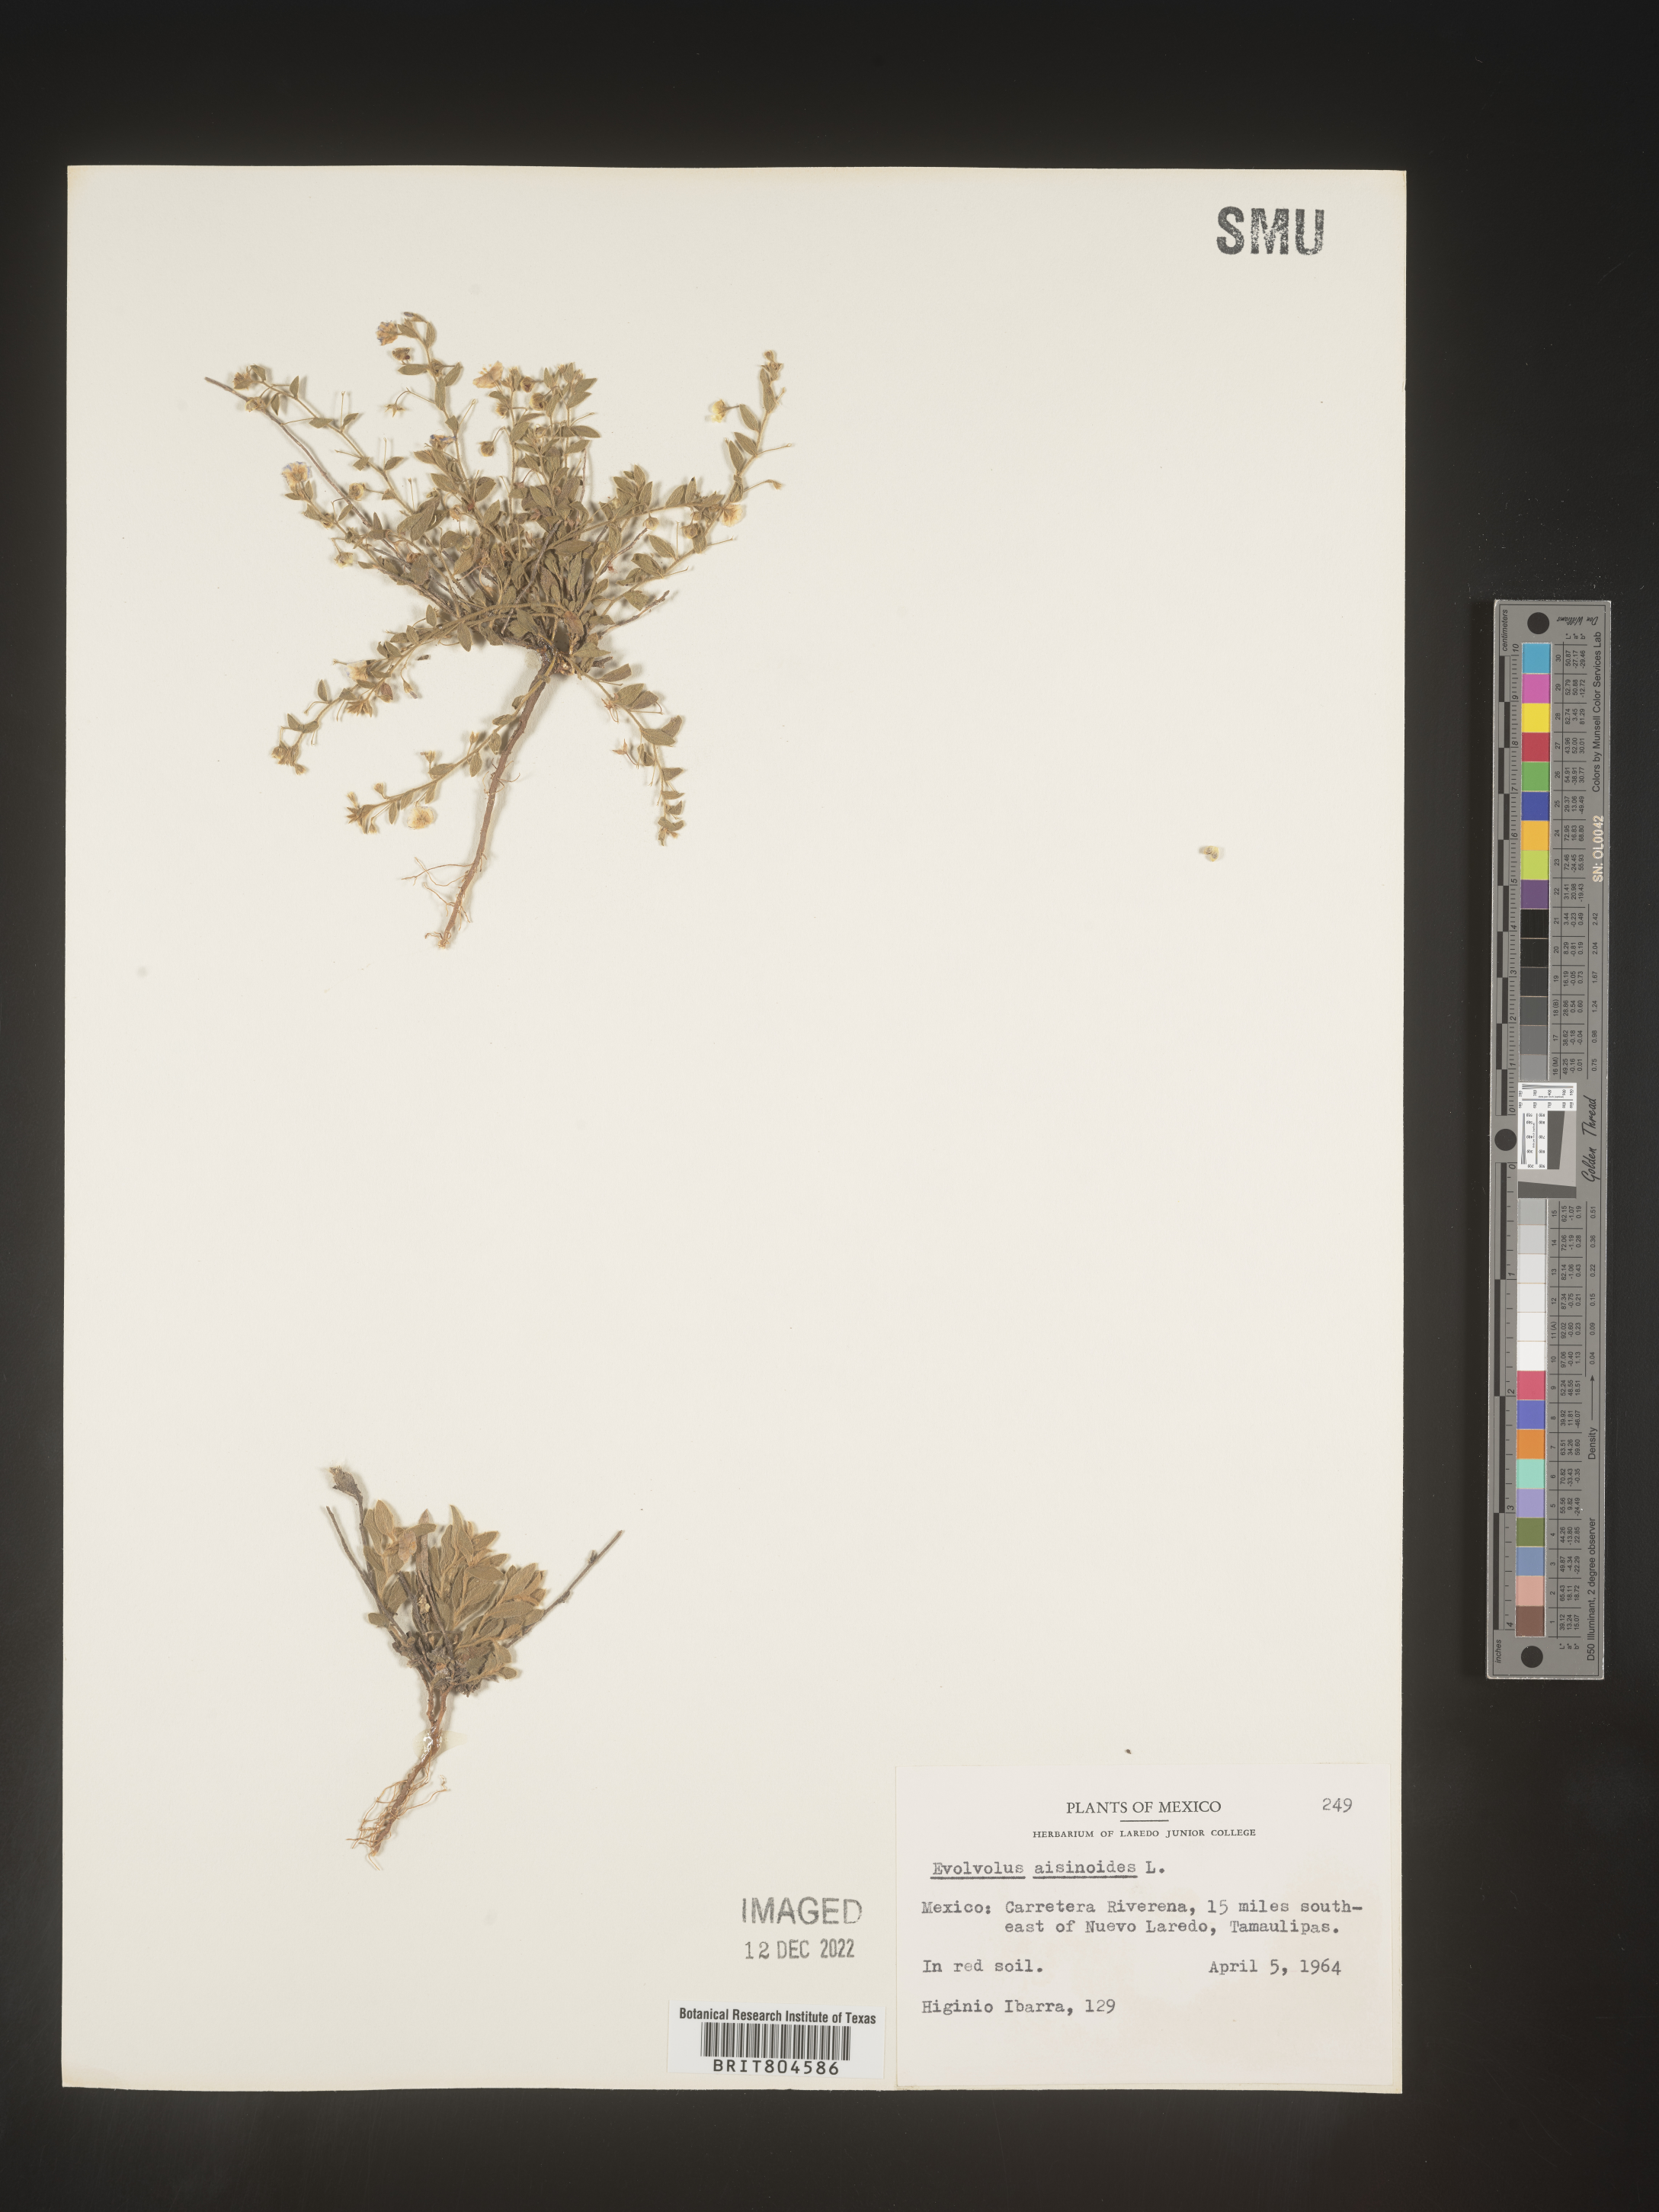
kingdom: Plantae
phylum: Tracheophyta
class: Magnoliopsida
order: Solanales
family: Convolvulaceae
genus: Evolvulus
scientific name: Evolvulus
